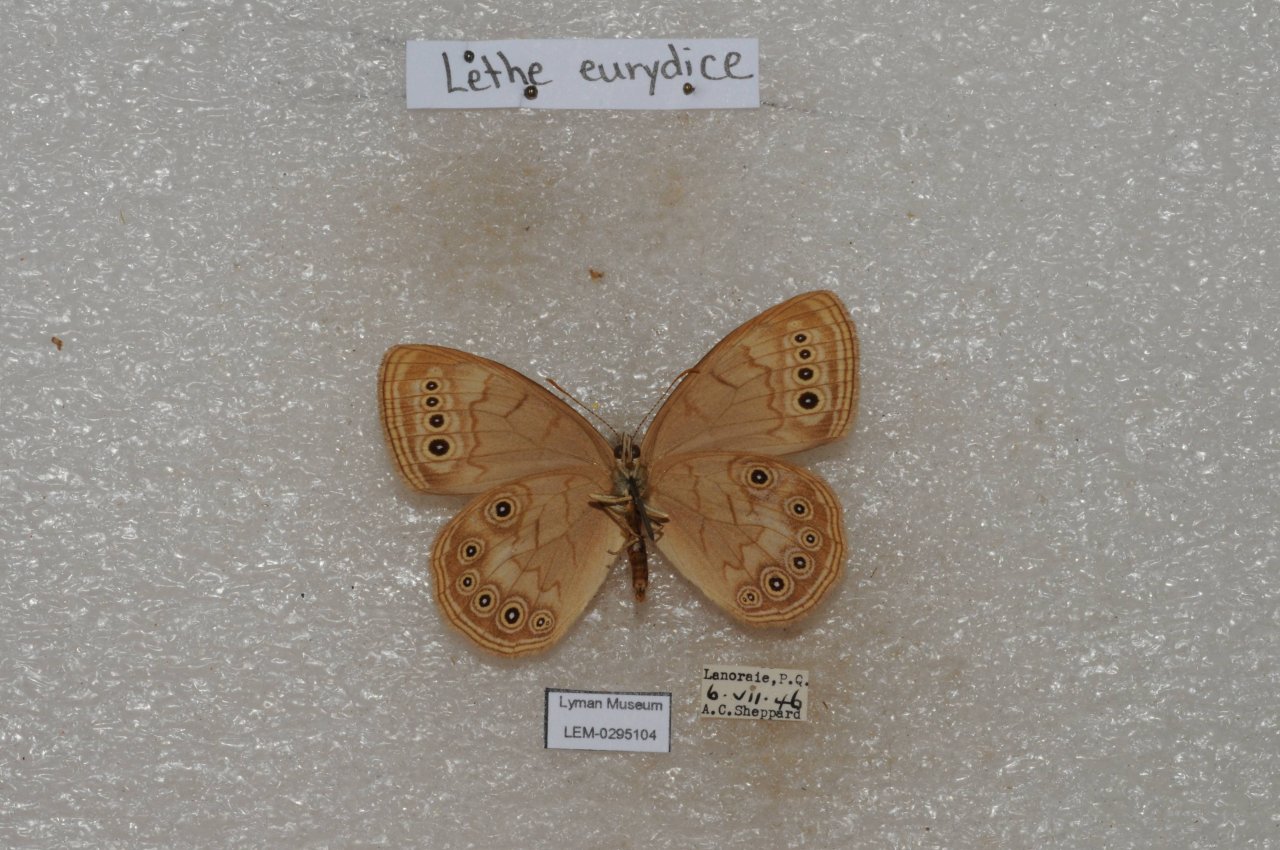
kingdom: Animalia
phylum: Arthropoda
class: Insecta
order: Lepidoptera
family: Nymphalidae
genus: Lethe
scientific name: Lethe eurydice
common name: Eyed Brown
